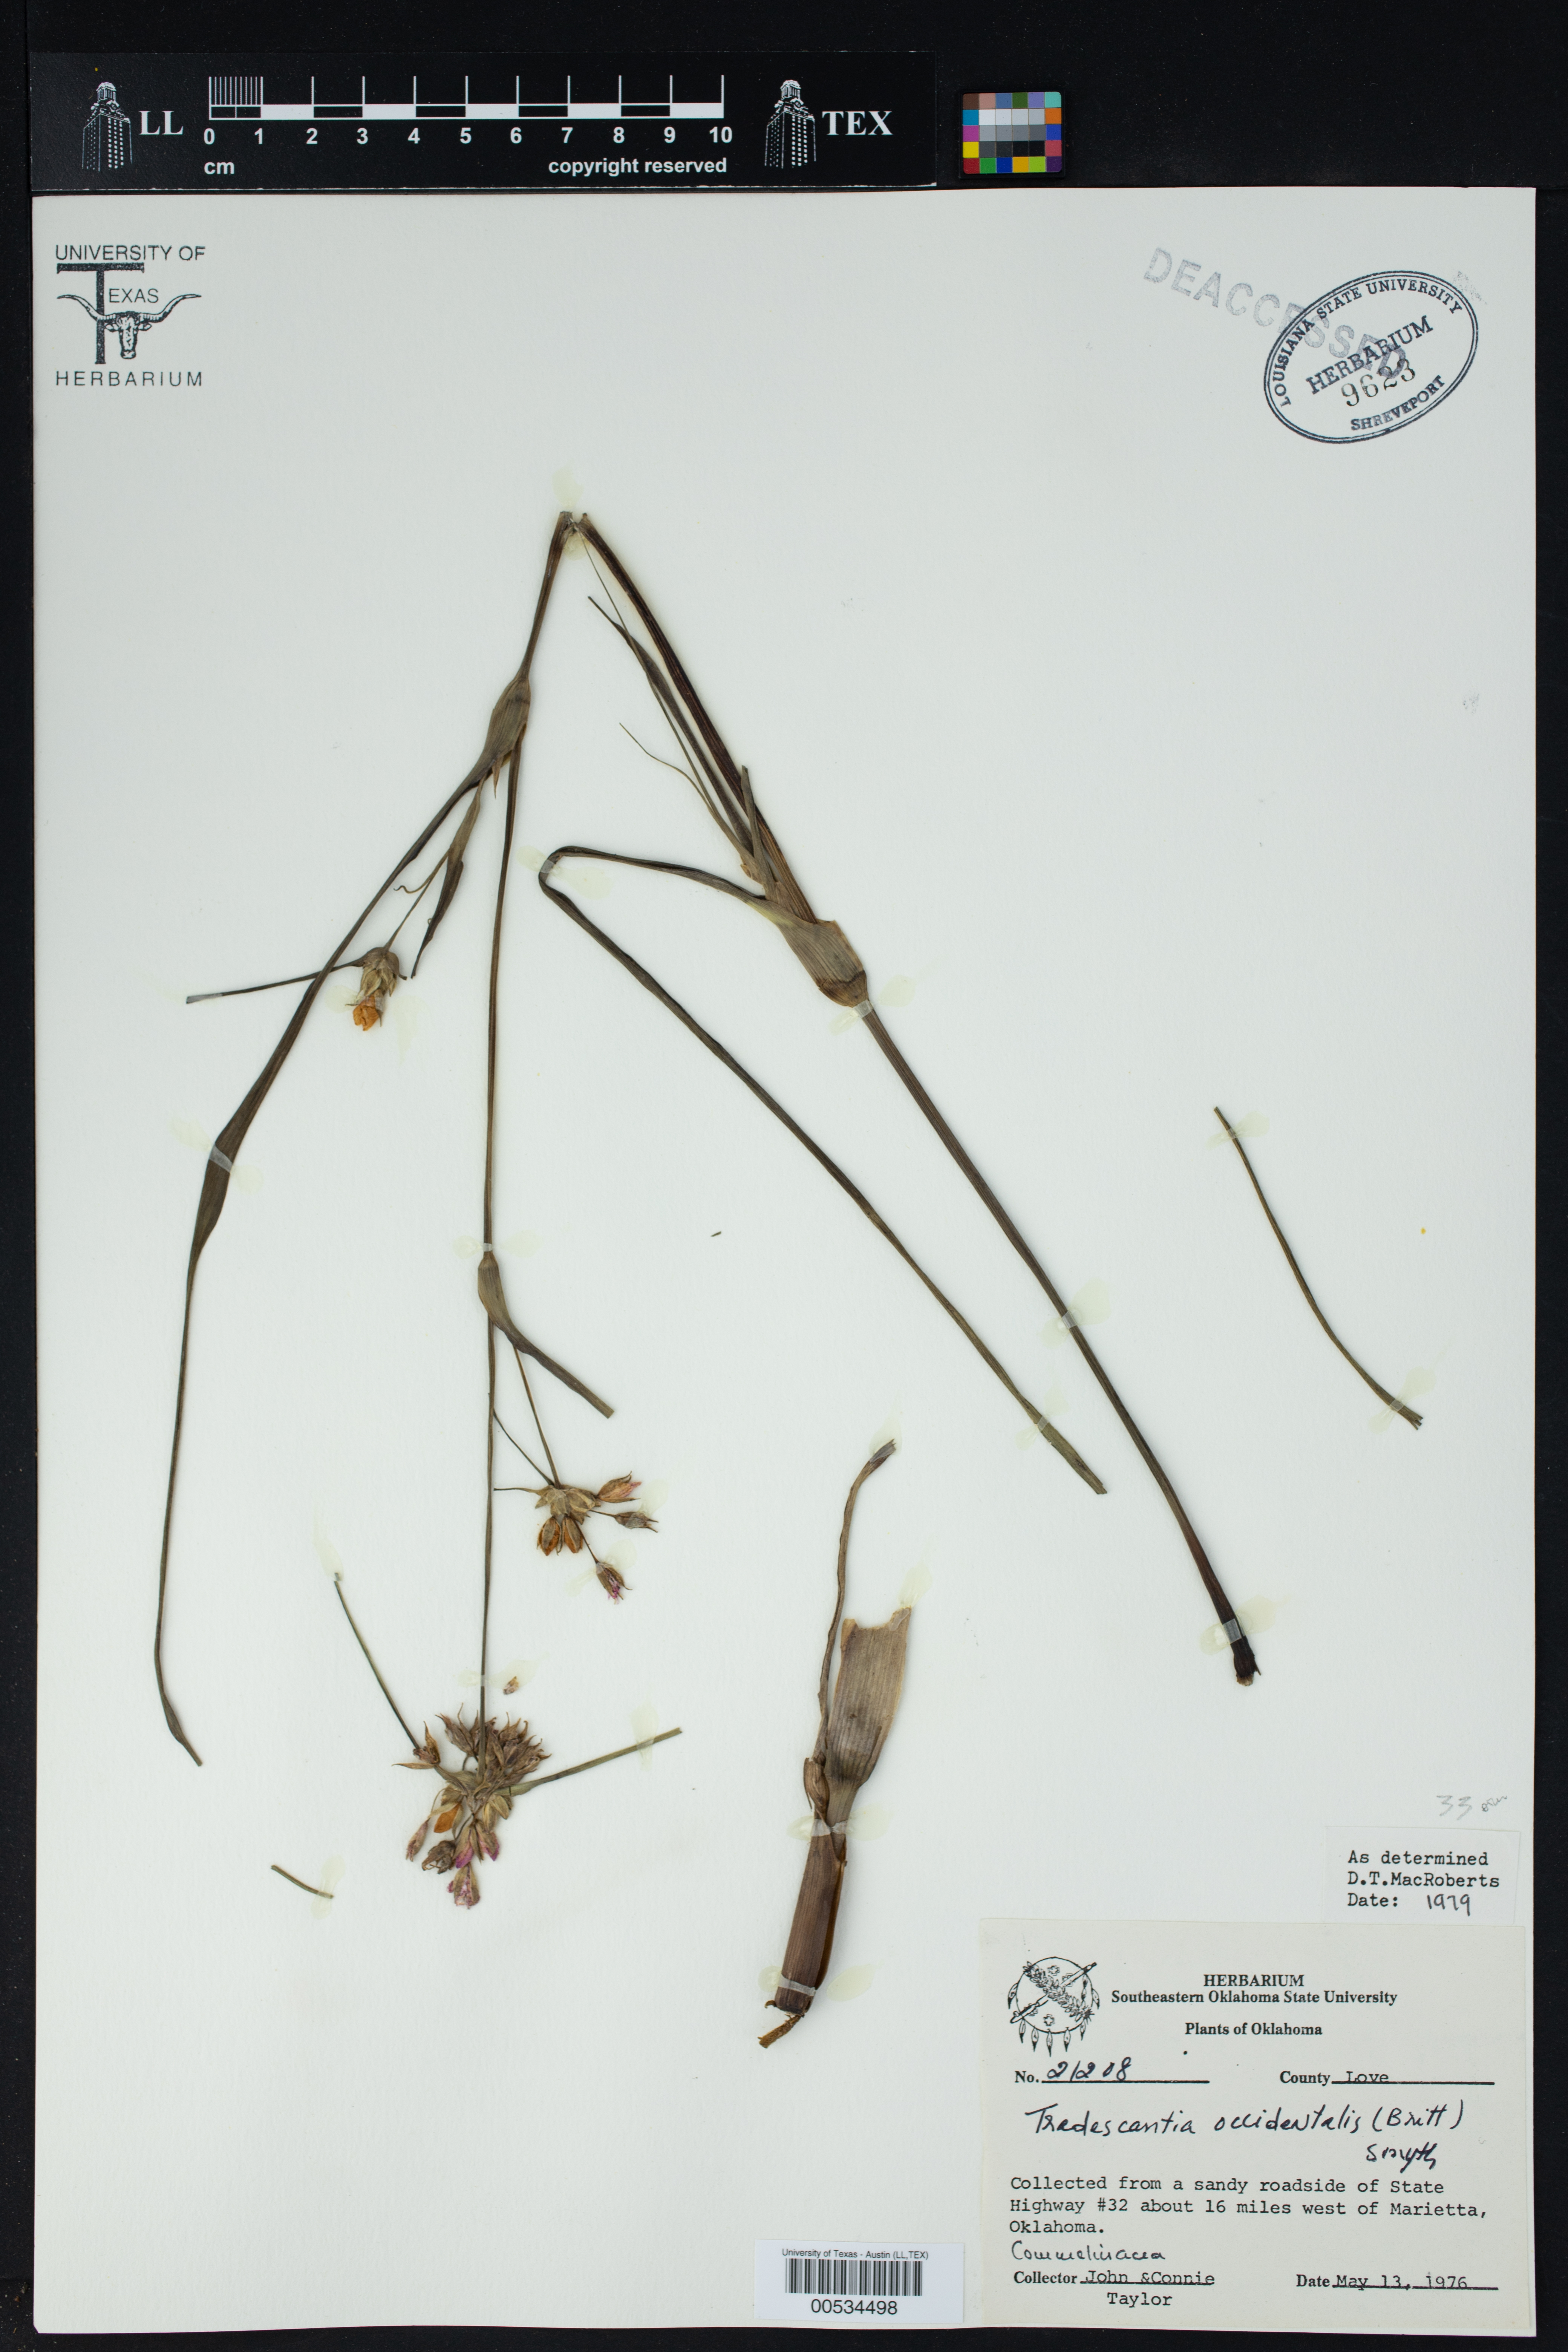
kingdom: Plantae
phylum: Tracheophyta
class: Liliopsida
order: Commelinales
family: Commelinaceae
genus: Tradescantia
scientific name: Tradescantia occidentalis
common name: Prairie spiderwort
